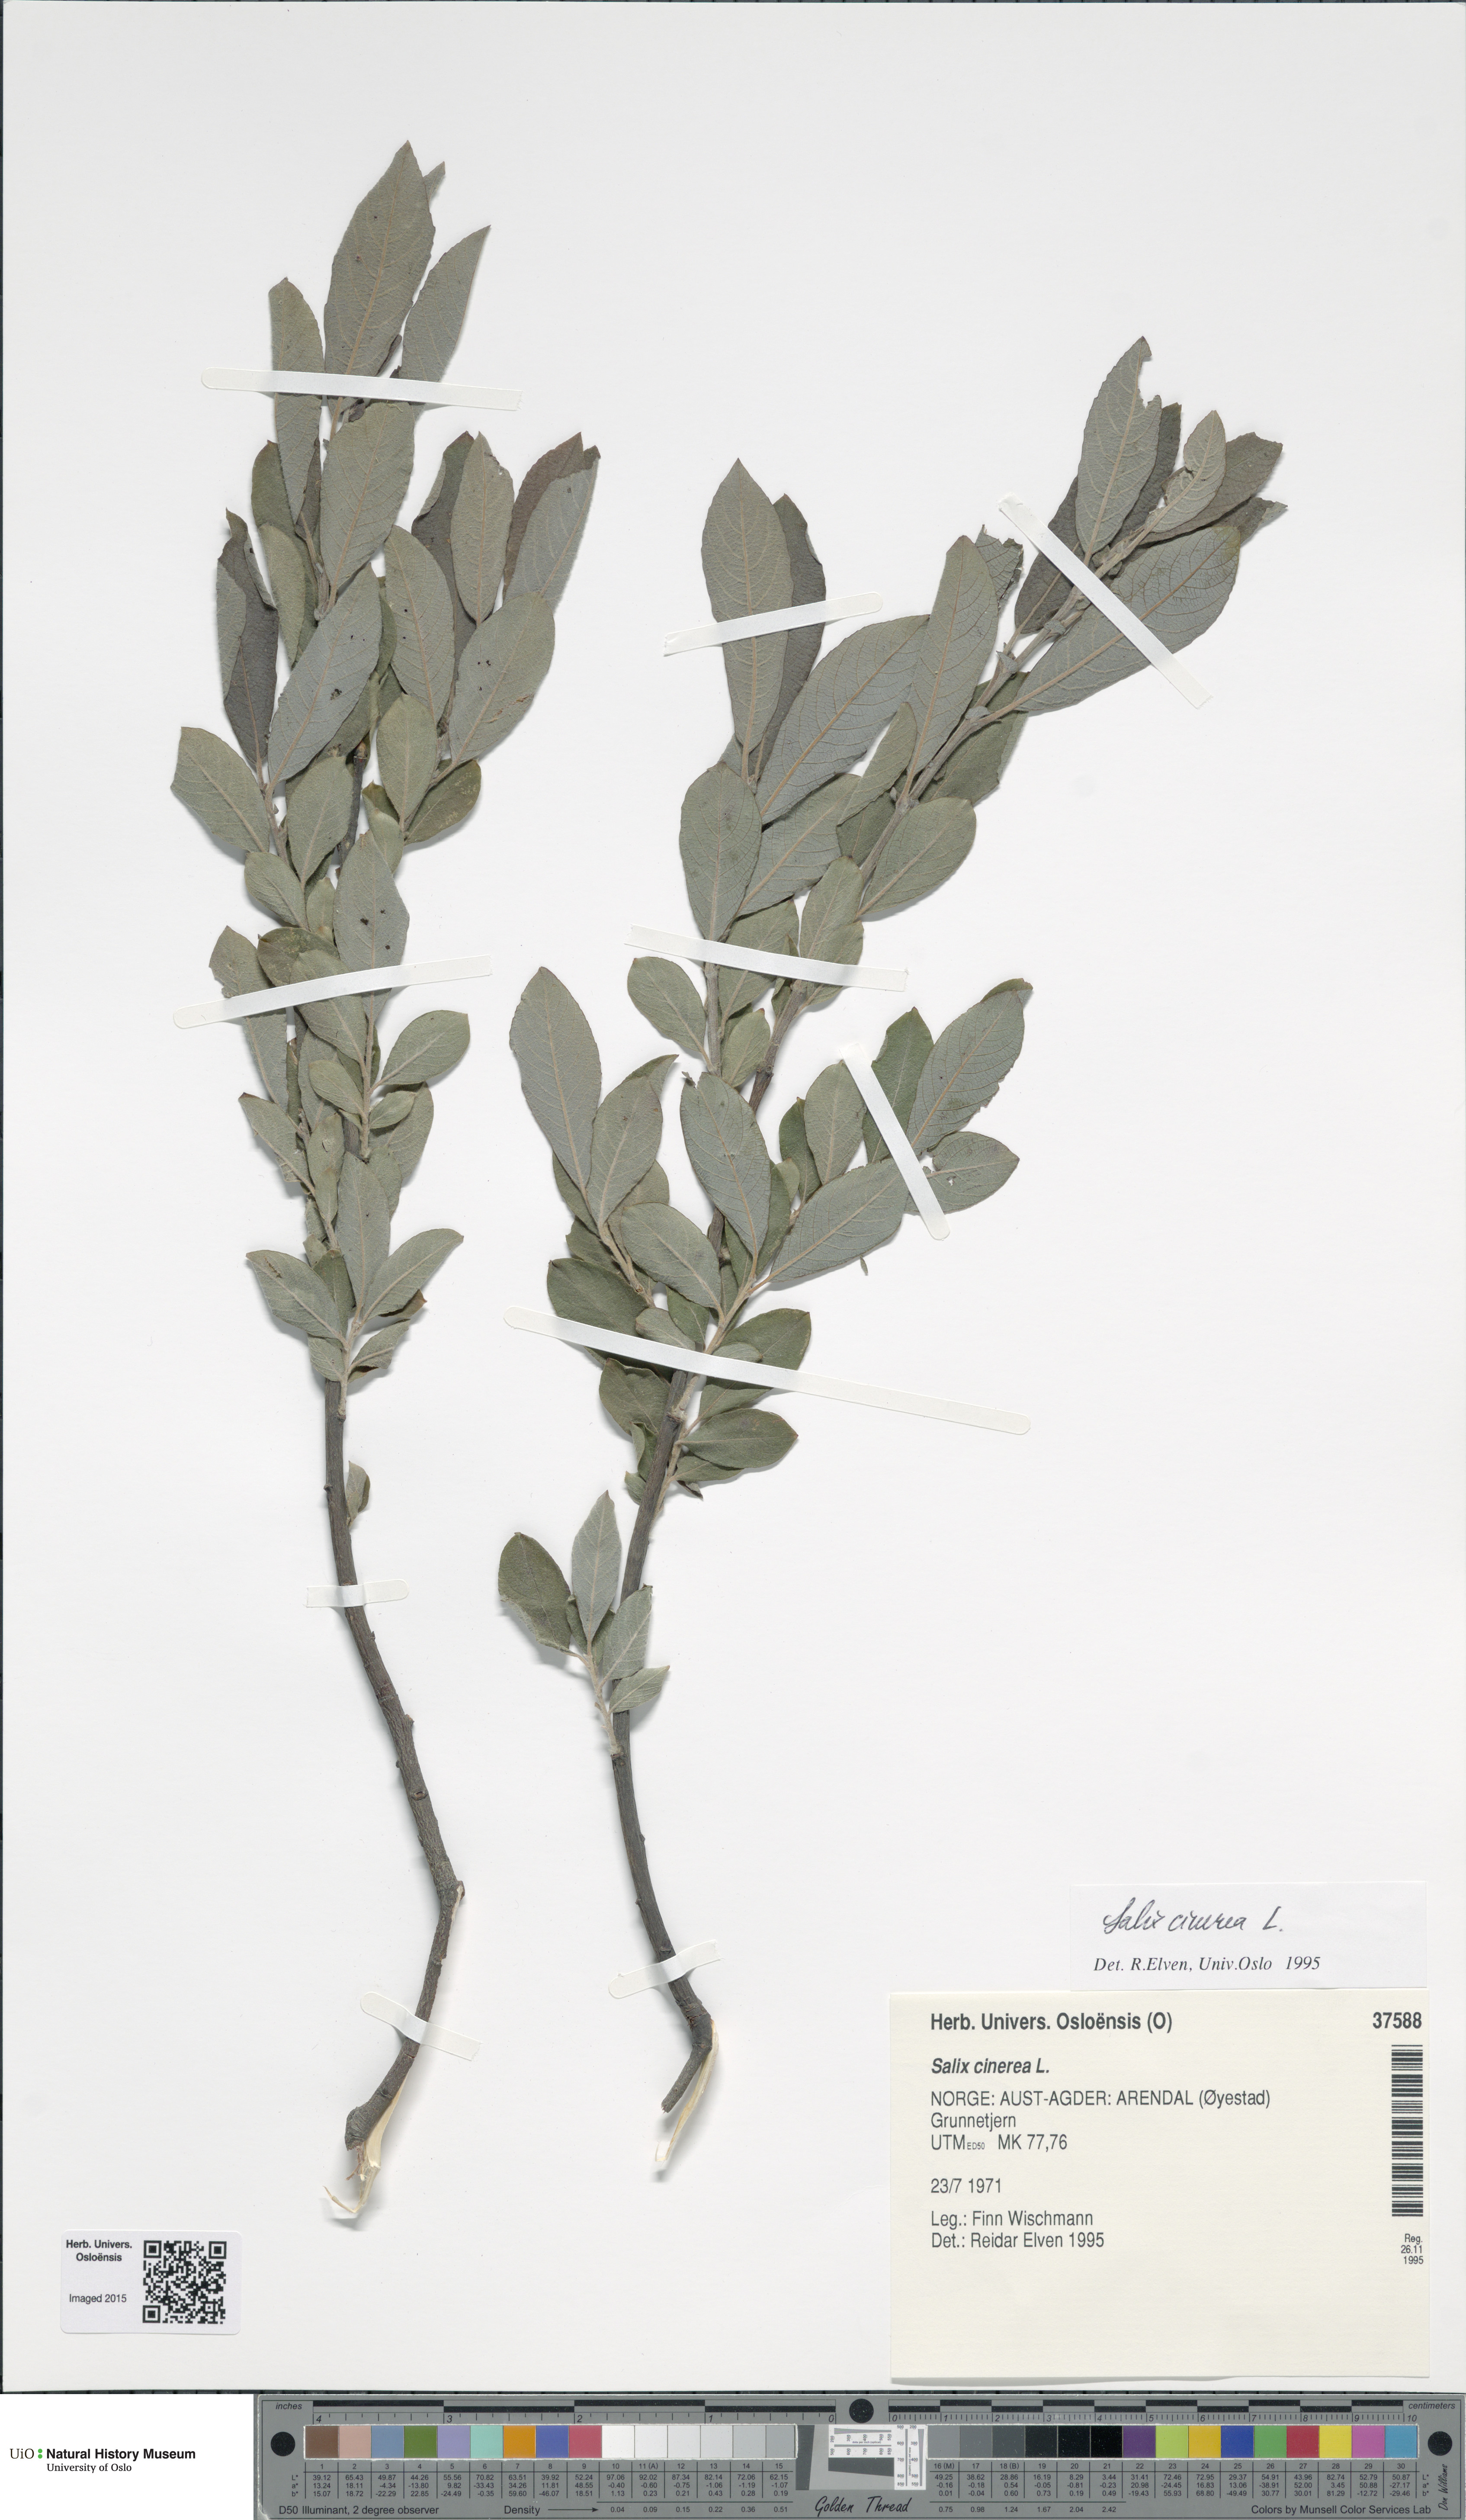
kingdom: Plantae
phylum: Tracheophyta
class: Magnoliopsida
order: Malpighiales
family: Salicaceae
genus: Salix
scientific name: Salix cinerea
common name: Common sallow
